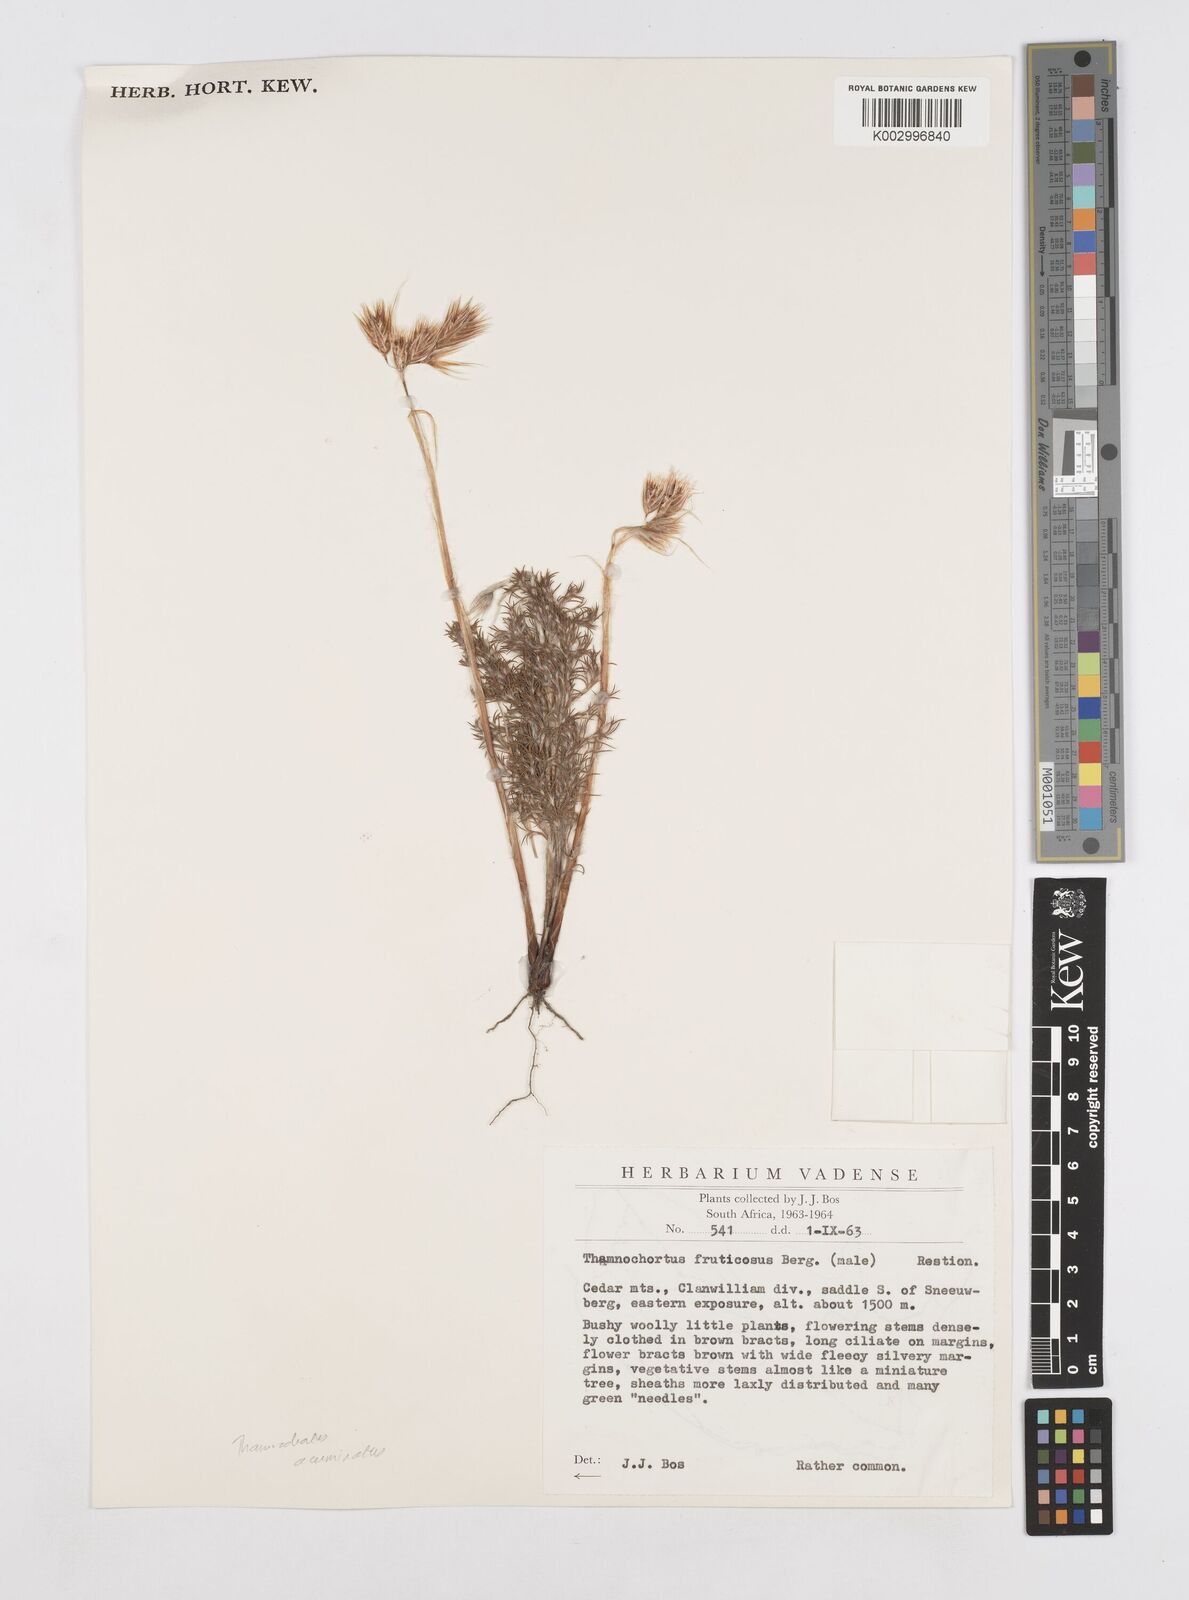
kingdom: Plantae
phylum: Tracheophyta
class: Liliopsida
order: Poales
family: Restionaceae
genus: Thamnochortus
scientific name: Thamnochortus acuminatus
